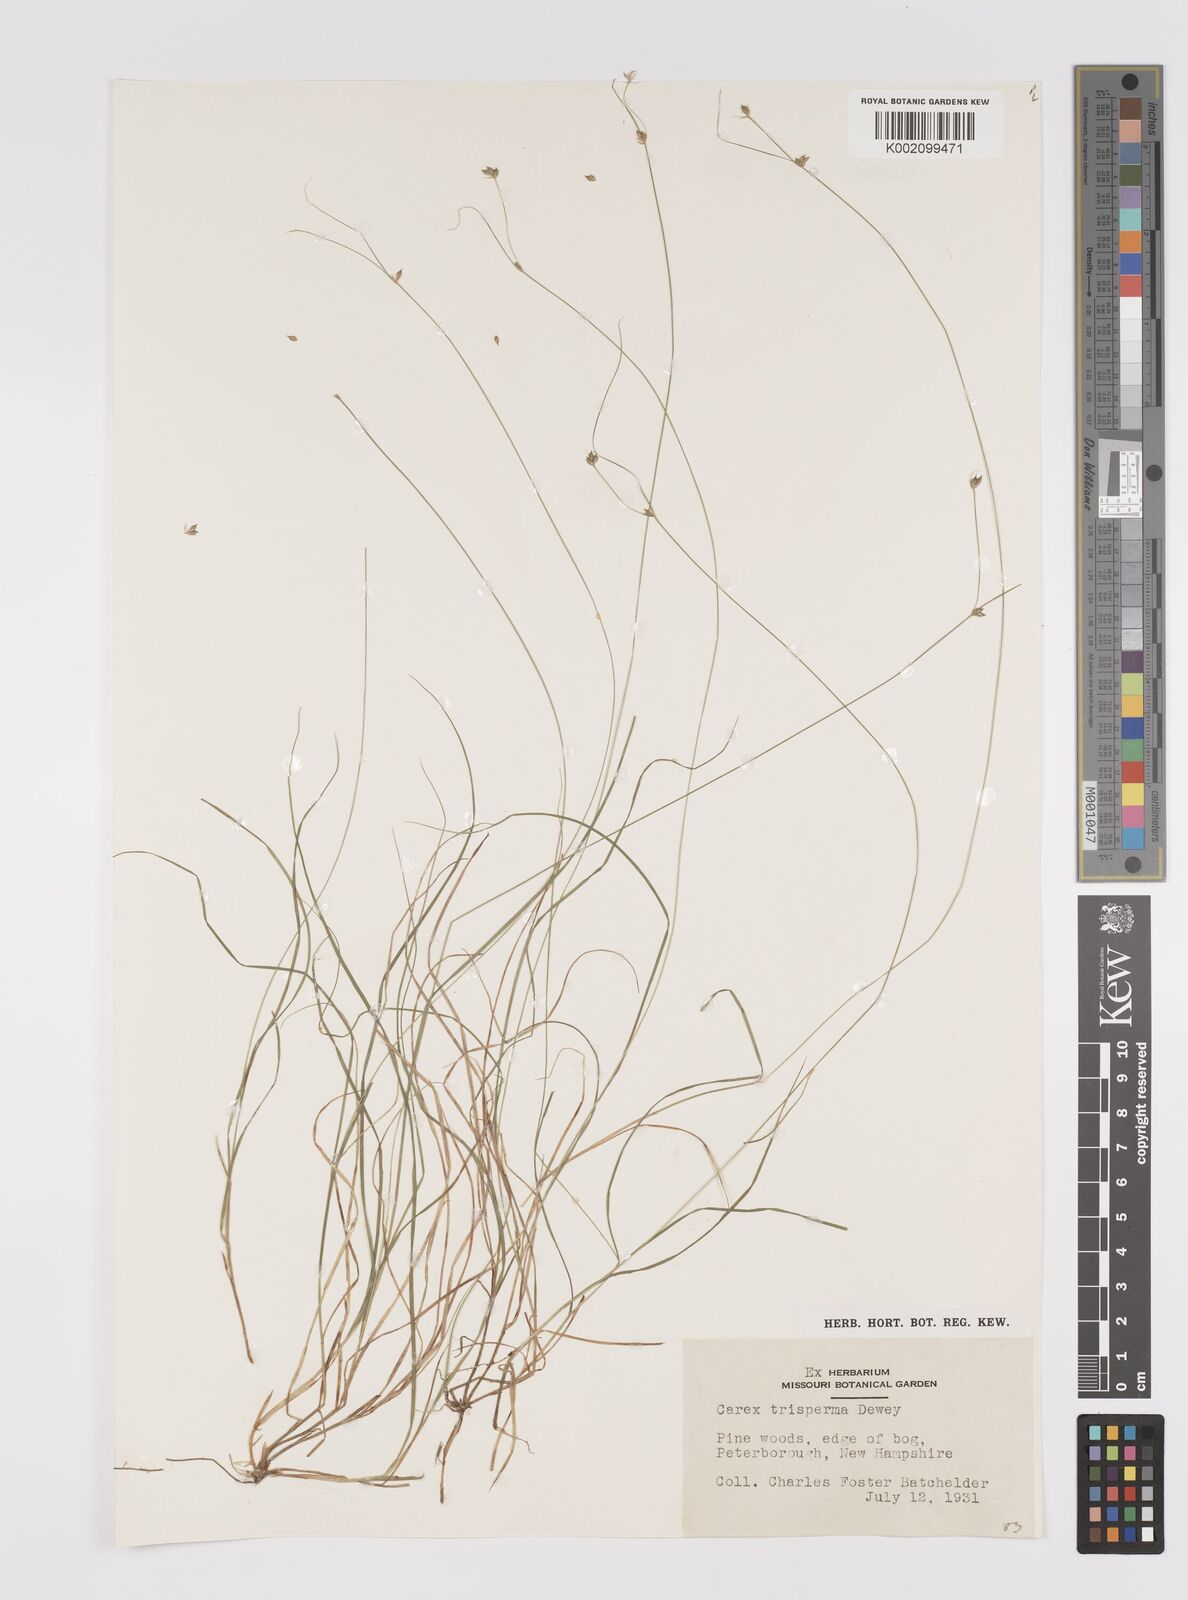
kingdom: Plantae
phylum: Tracheophyta
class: Liliopsida
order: Poales
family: Cyperaceae
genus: Carex
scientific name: Carex trisperma
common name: Three-seeded sedge
